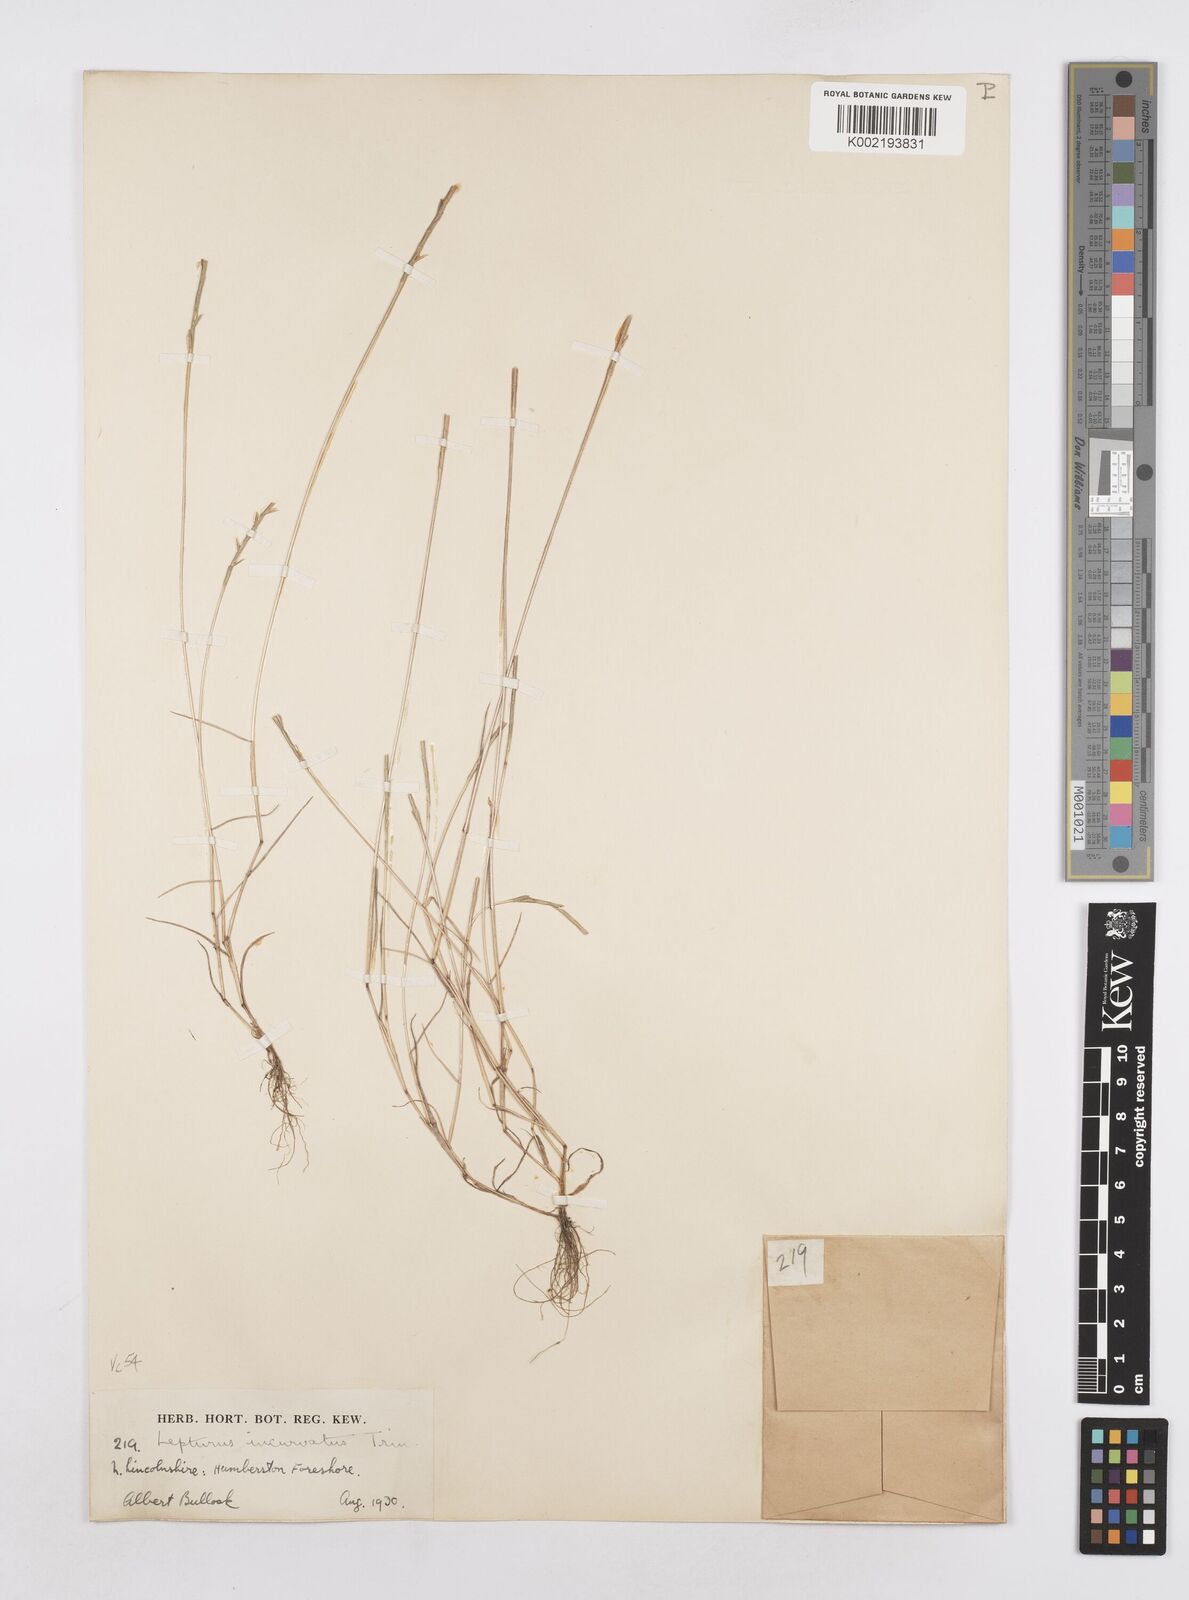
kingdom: Plantae
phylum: Tracheophyta
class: Liliopsida
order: Poales
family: Poaceae
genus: Parapholis
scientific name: Parapholis strigosa
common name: Hard-grass
